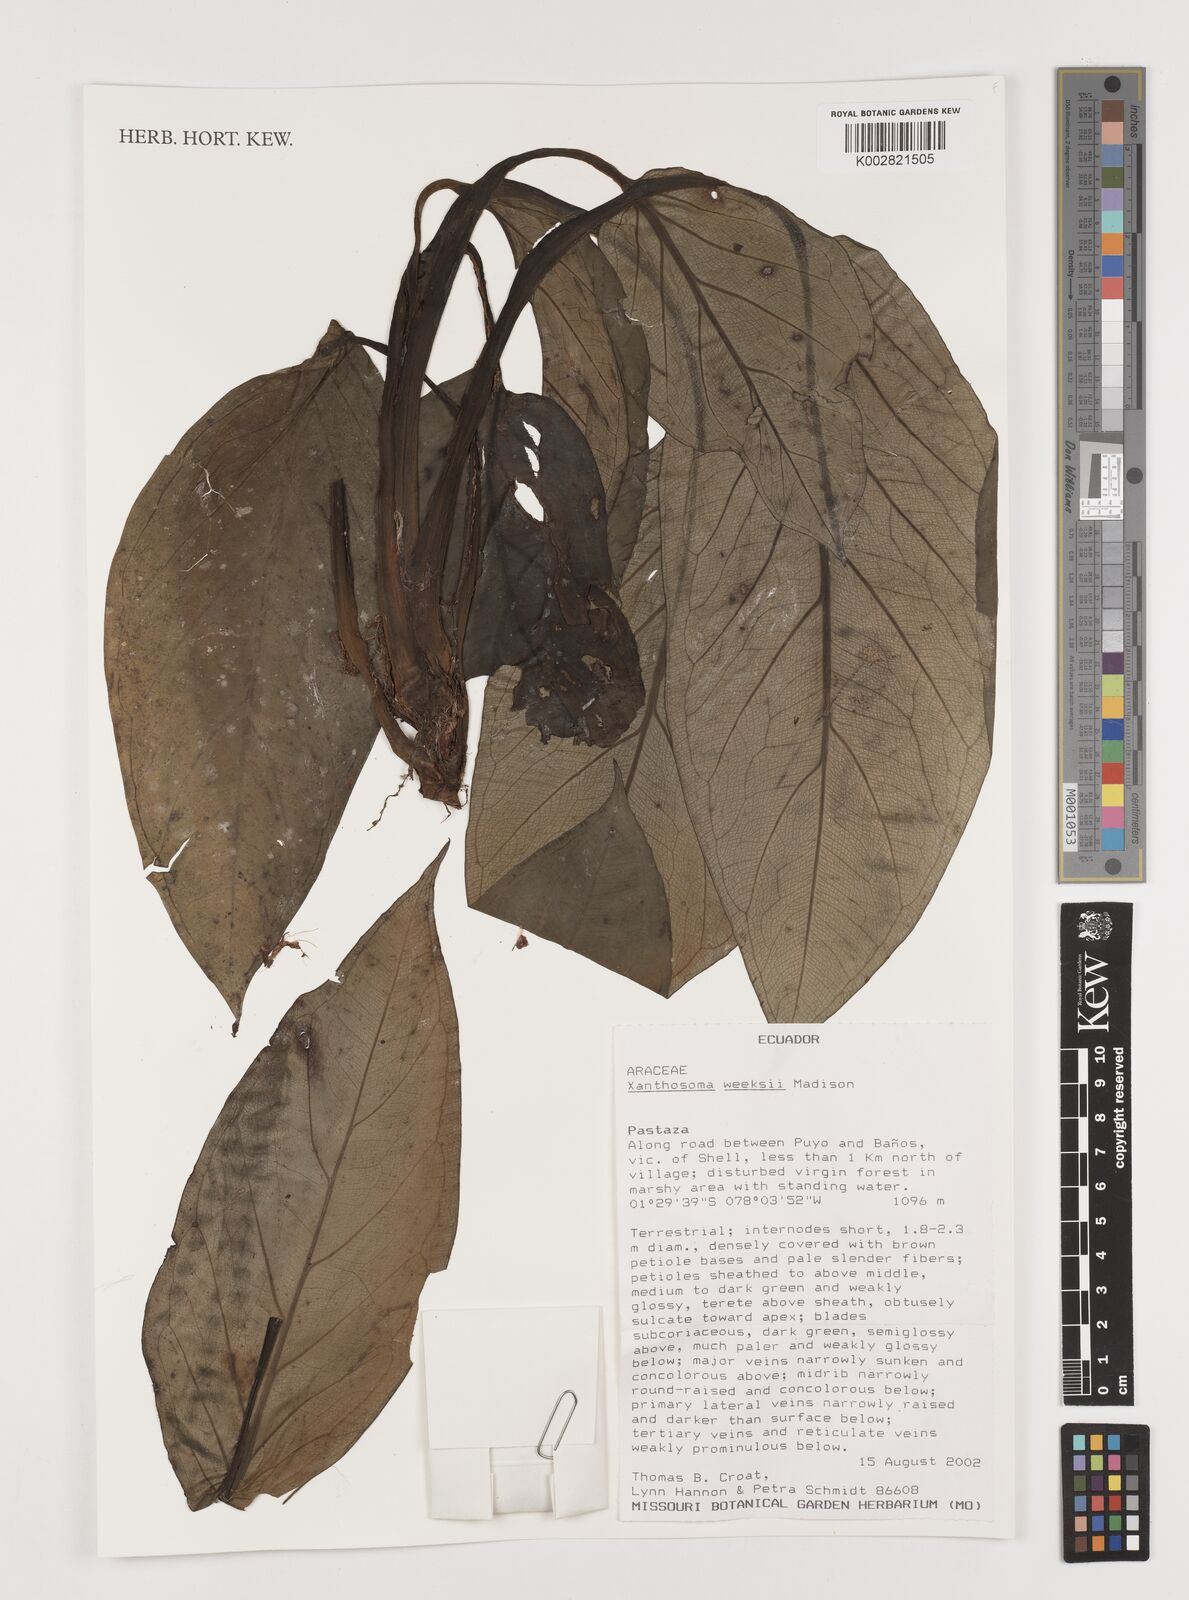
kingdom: Plantae
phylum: Tracheophyta
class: Liliopsida
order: Alismatales
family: Araceae
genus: Xanthosoma
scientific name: Xanthosoma weeksii
